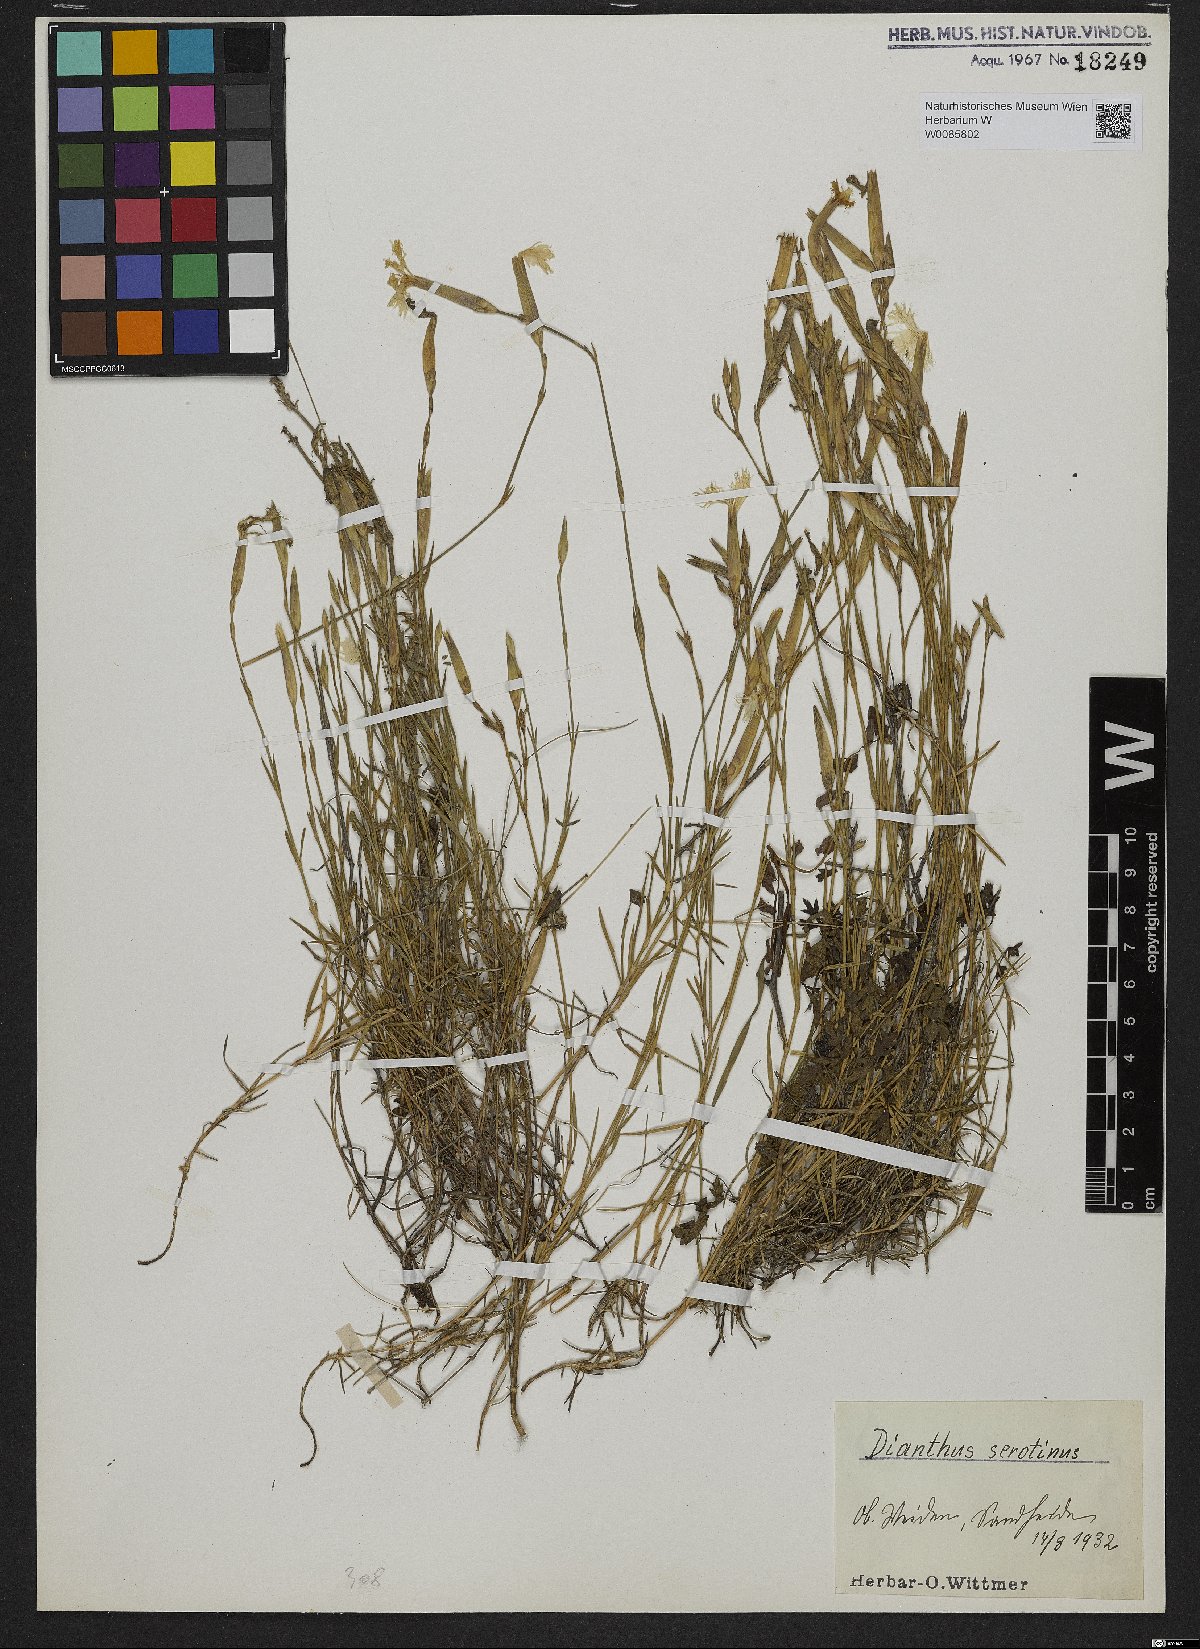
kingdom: Plantae
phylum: Tracheophyta
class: Magnoliopsida
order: Caryophyllales
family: Caryophyllaceae
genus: Dianthus
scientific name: Dianthus serotinus
